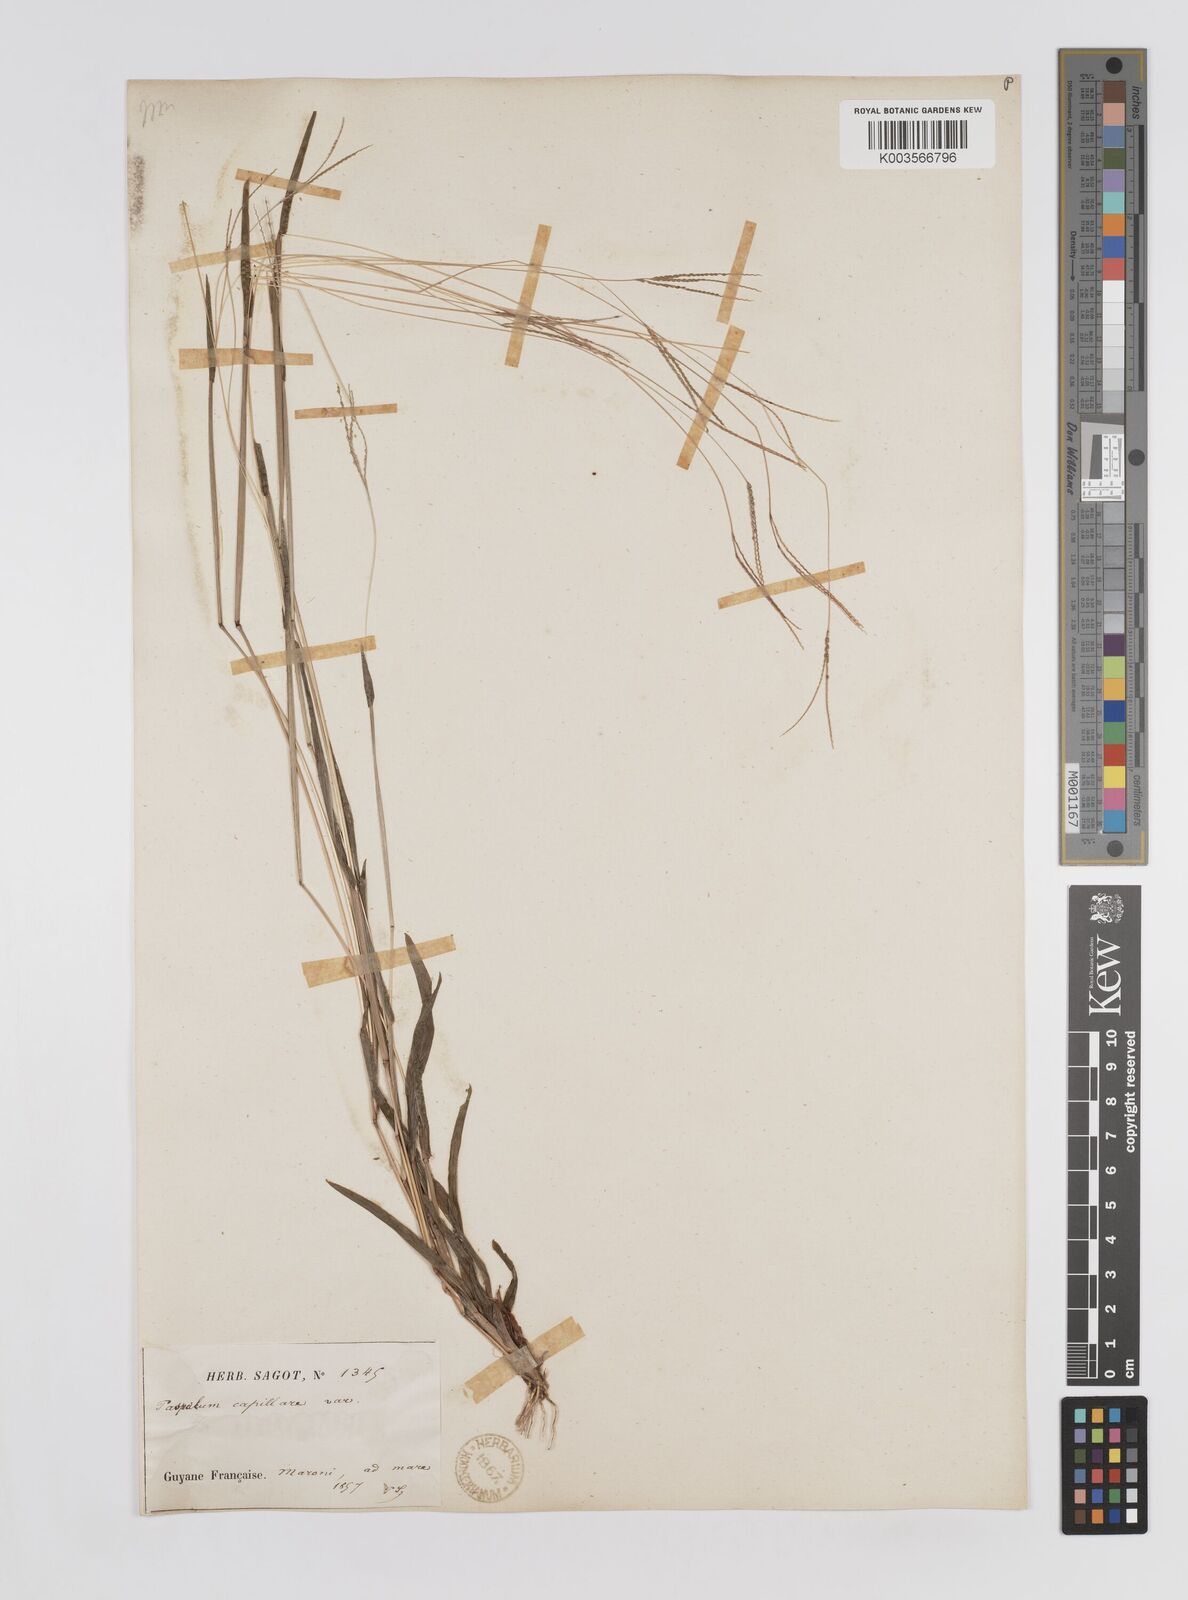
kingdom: Plantae
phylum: Tracheophyta
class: Liliopsida
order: Poales
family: Poaceae
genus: Axonopus
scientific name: Axonopus capillaris
